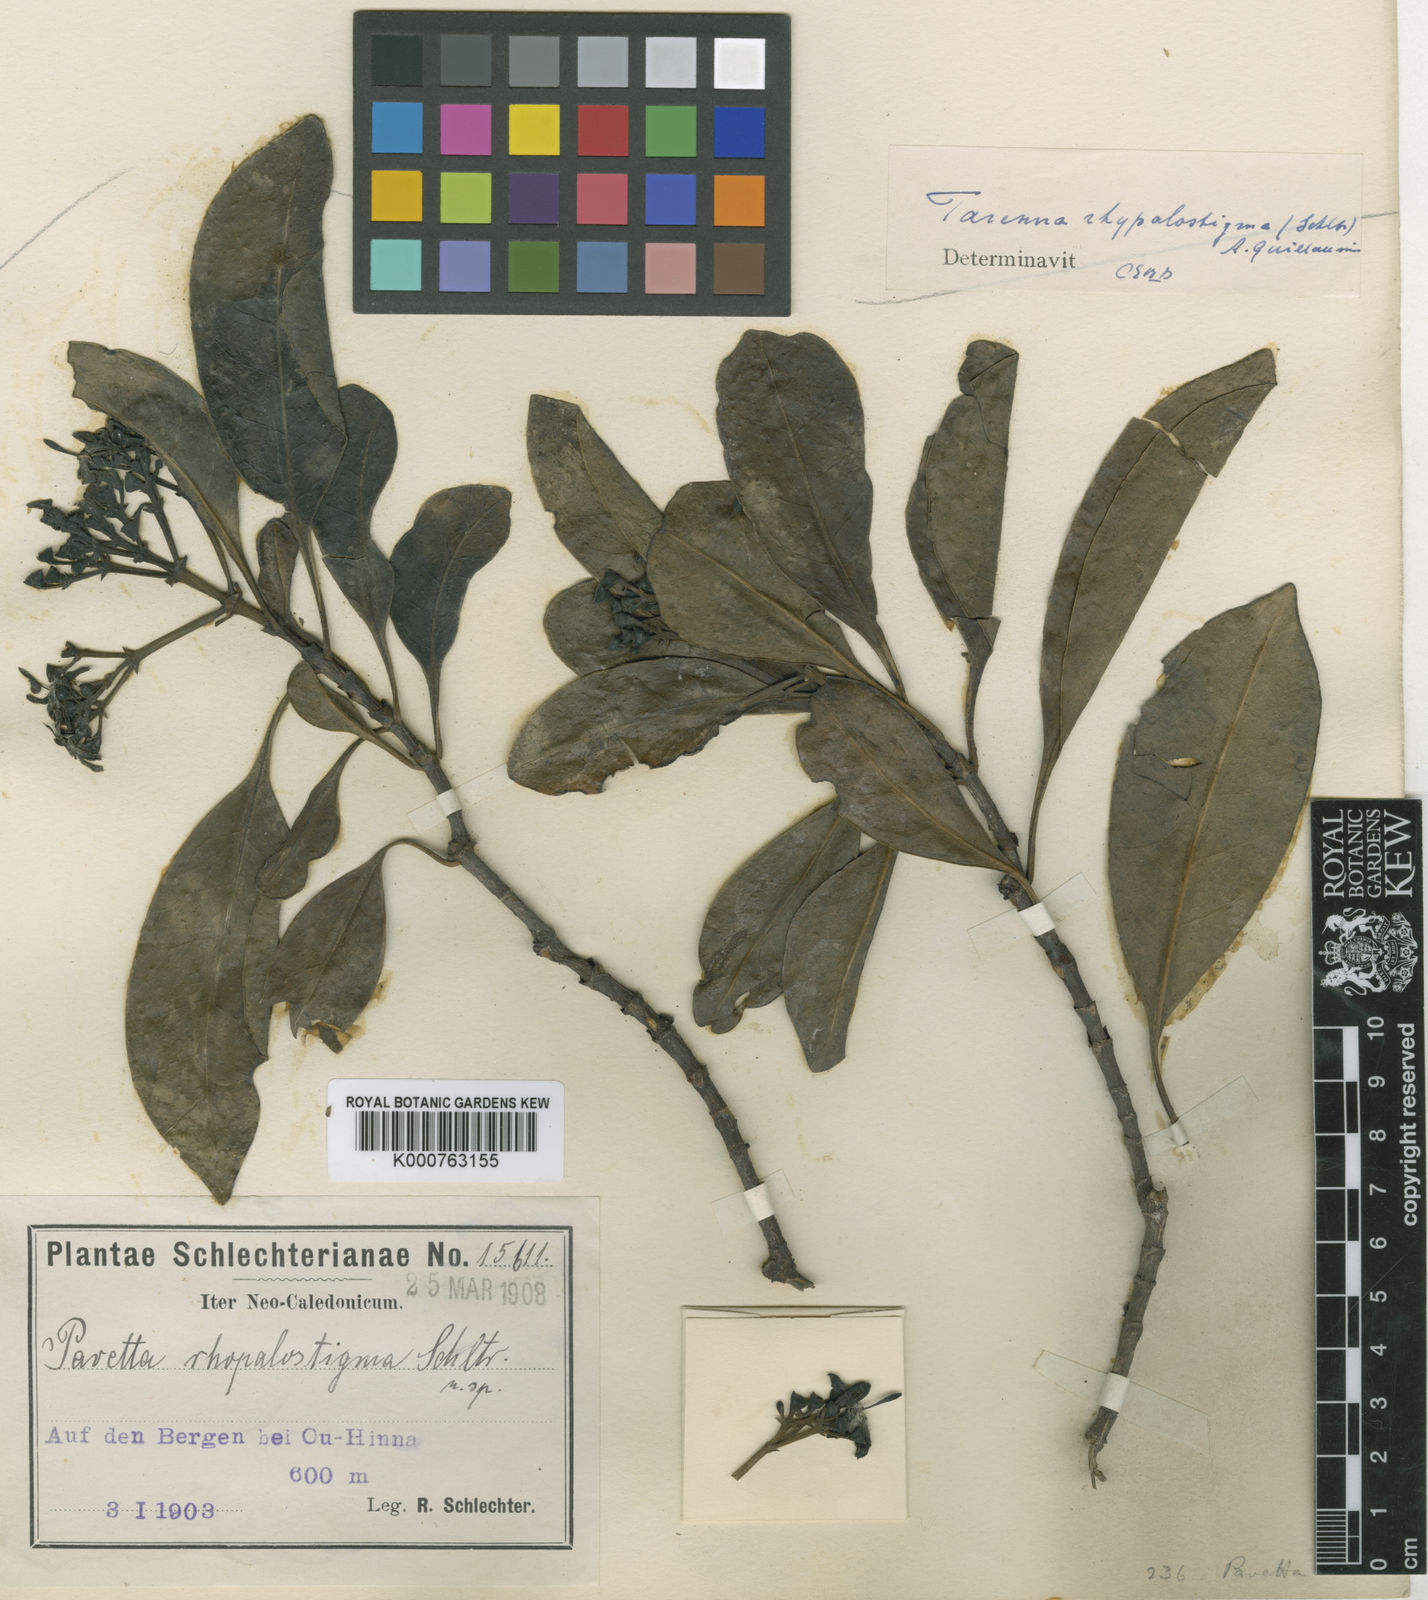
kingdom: Plantae
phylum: Tracheophyta
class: Magnoliopsida
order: Gentianales
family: Rubiaceae
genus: Tarenna
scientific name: Tarenna rhypalostigma
